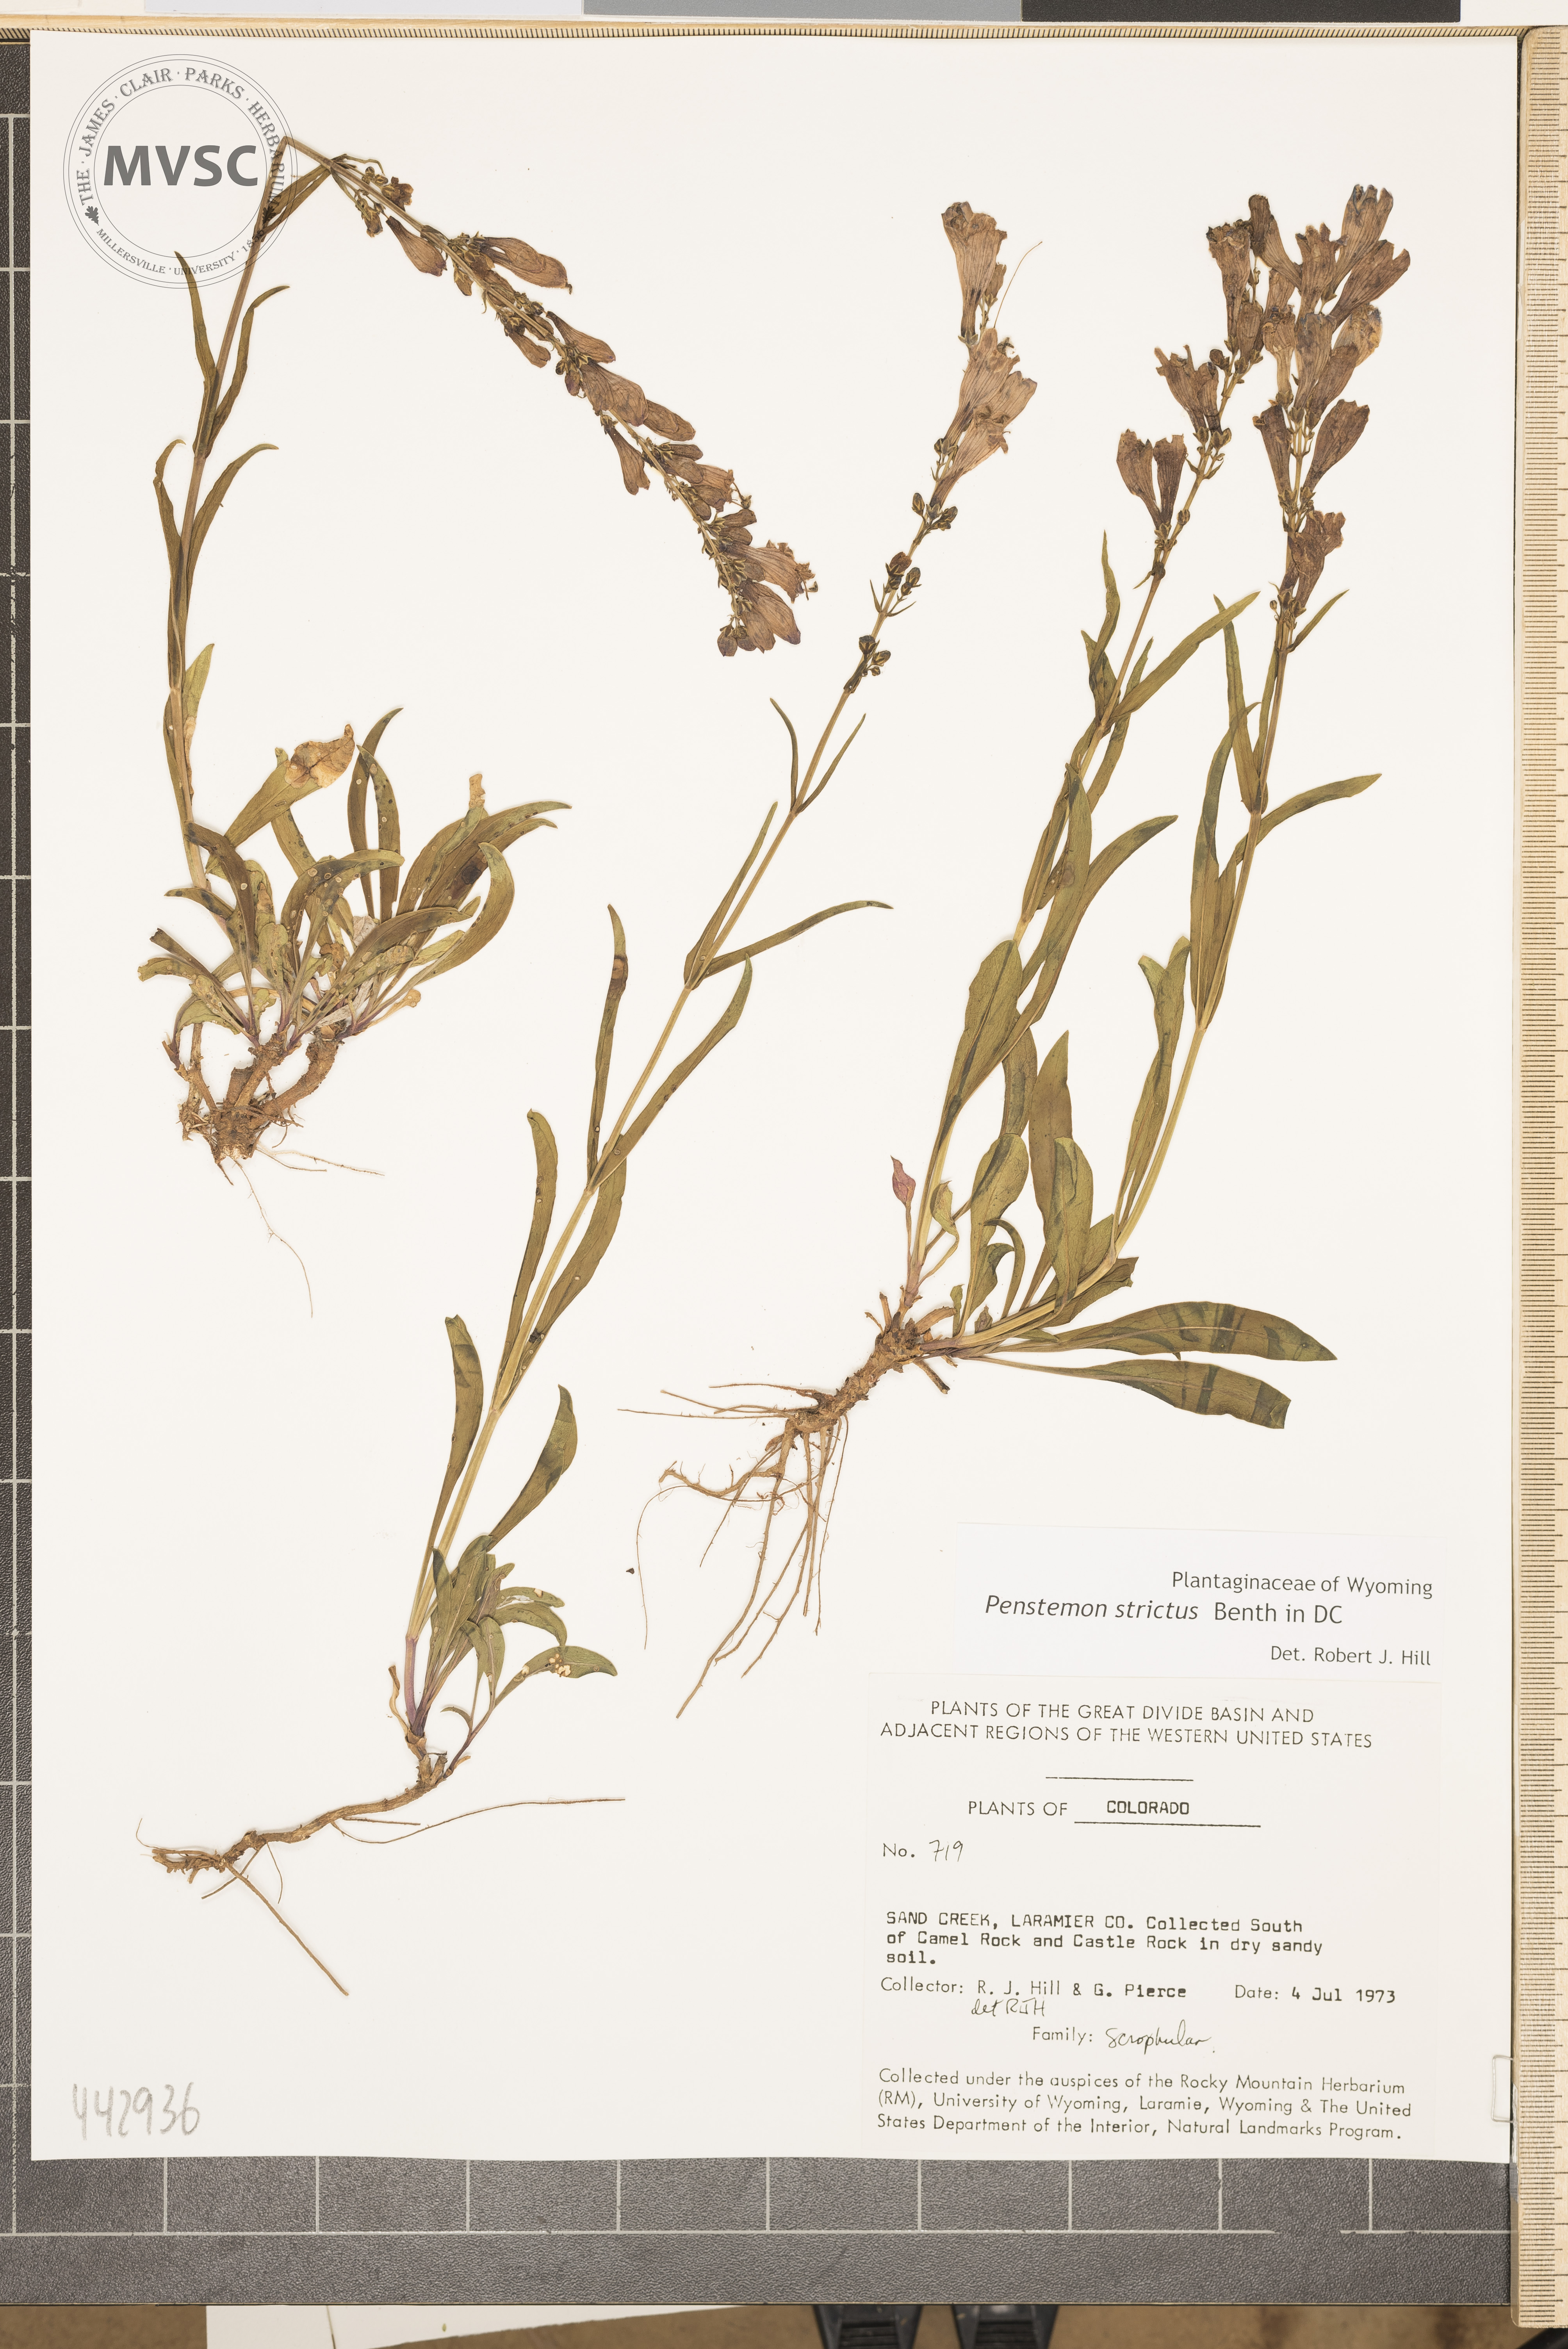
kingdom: Plantae
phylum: Tracheophyta
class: Magnoliopsida
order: Lamiales
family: Plantaginaceae
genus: Penstemon
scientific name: Penstemon strictus
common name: Rocky mountain penstemon
